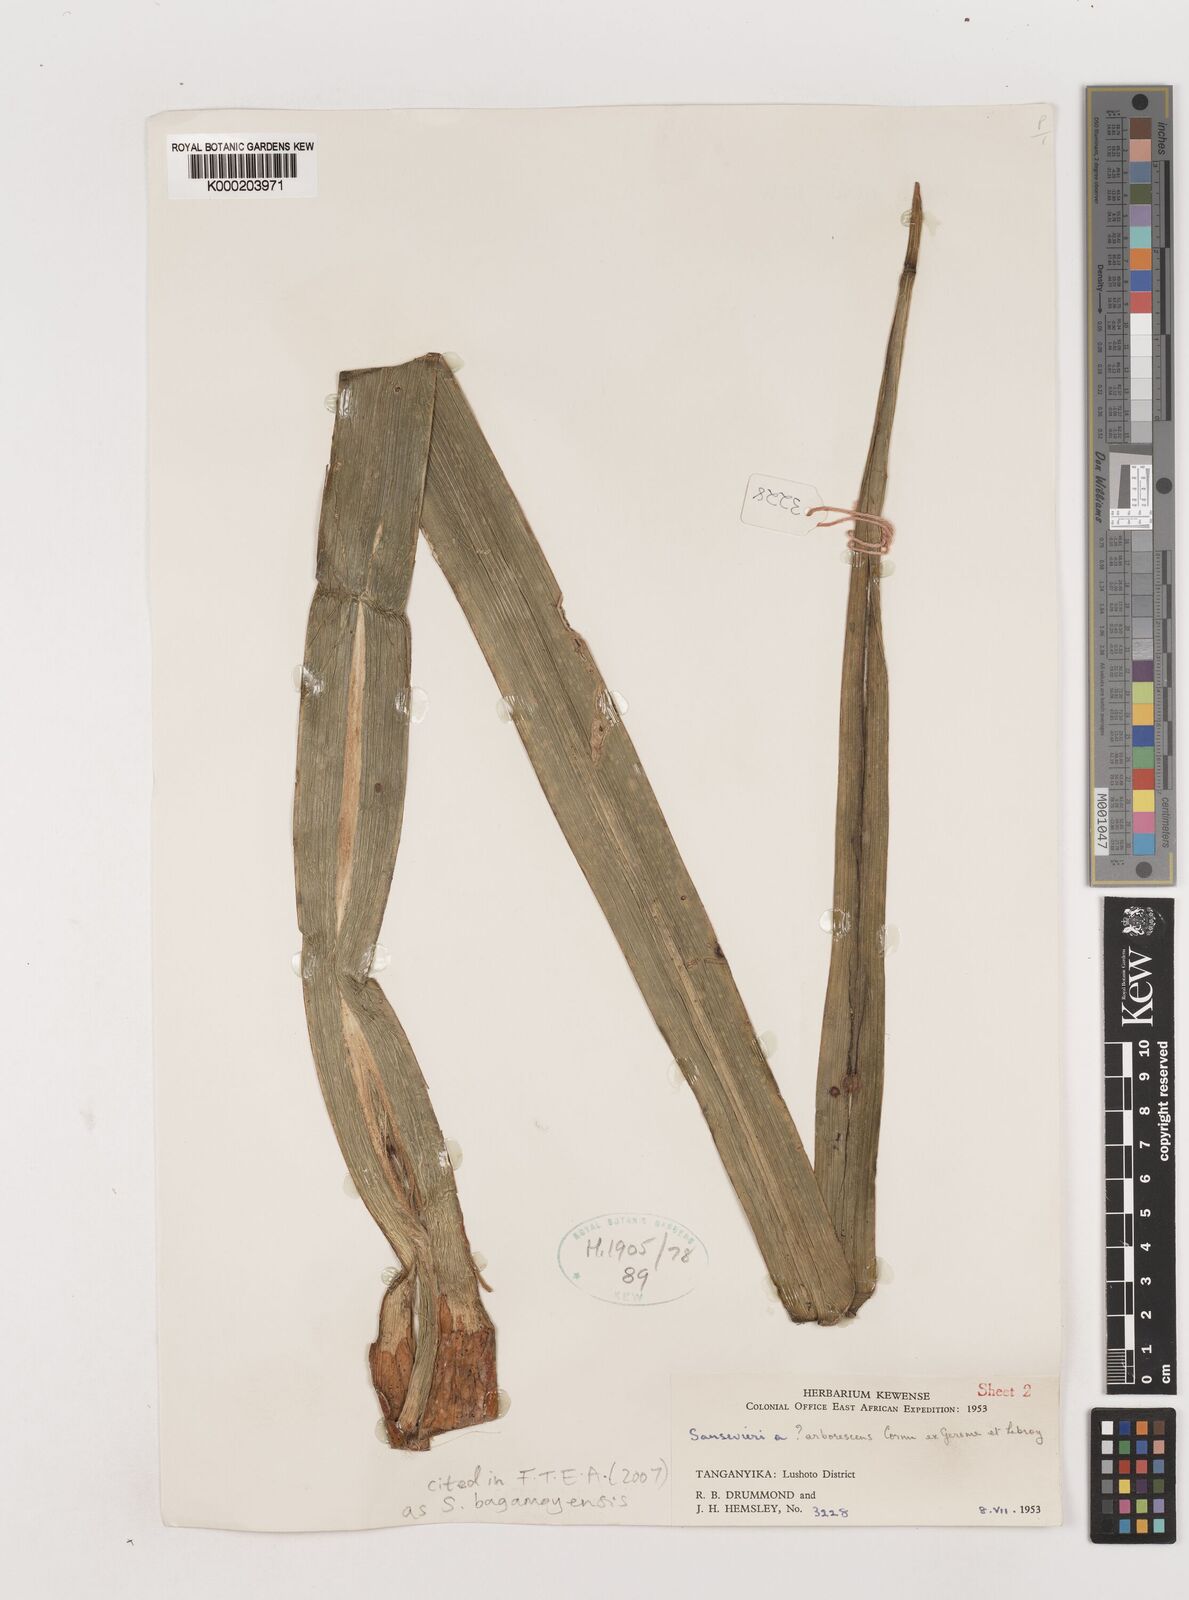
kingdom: Plantae
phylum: Tracheophyta
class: Liliopsida
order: Asparagales
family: Asparagaceae
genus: Dracaena
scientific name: Dracaena ascendens
